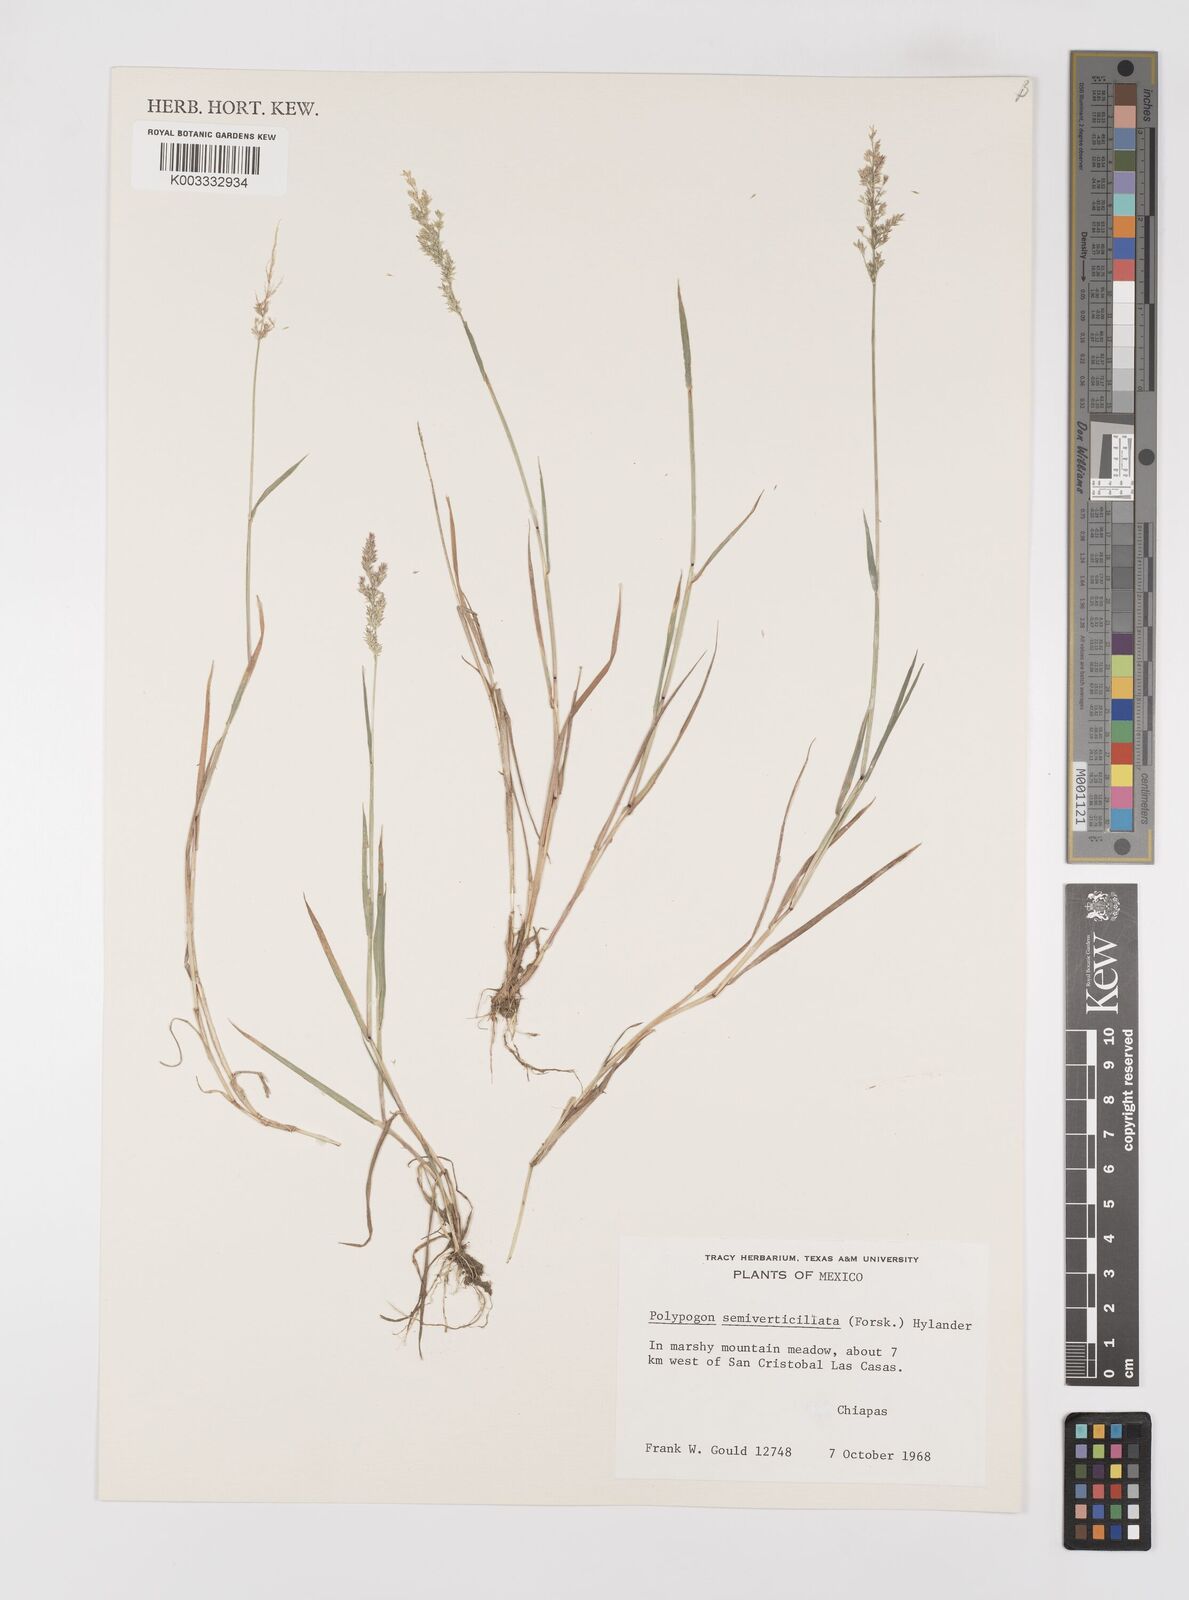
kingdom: Plantae
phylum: Tracheophyta
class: Liliopsida
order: Poales
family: Poaceae
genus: Polypogon
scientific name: Polypogon viridis
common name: Water bent
